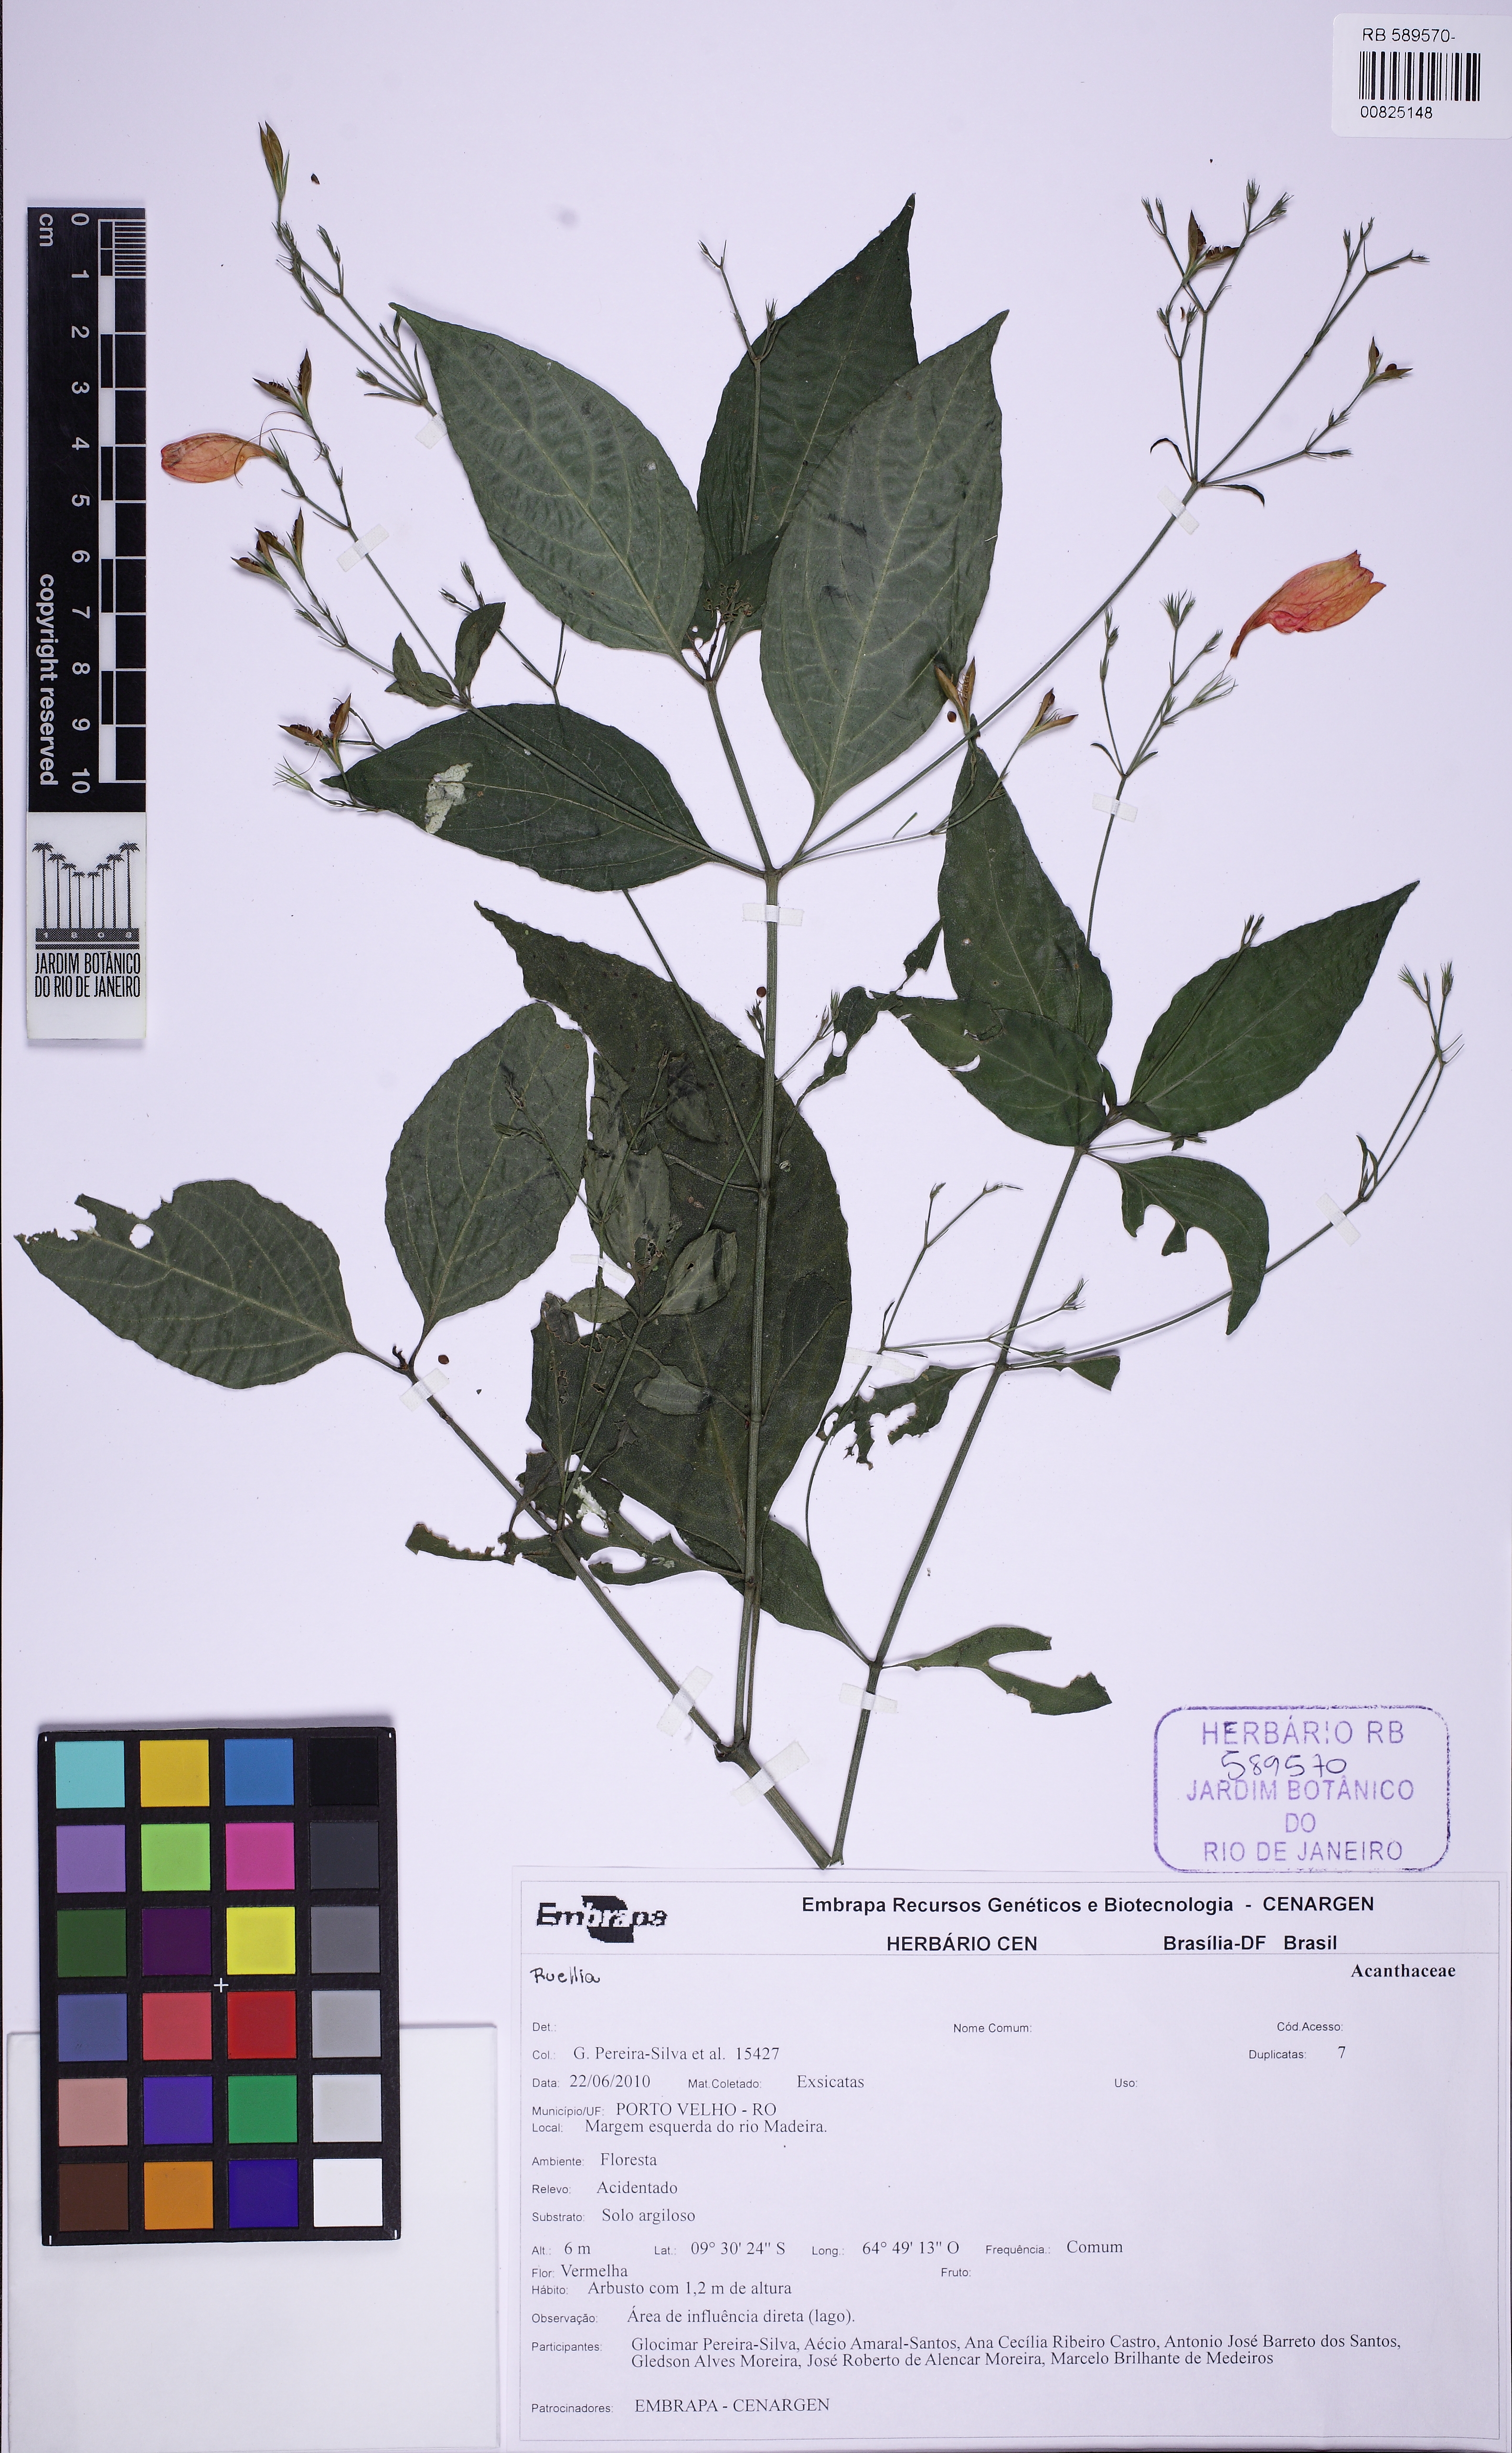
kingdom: Plantae
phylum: Tracheophyta
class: Magnoliopsida
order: Lamiales
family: Acanthaceae
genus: Ruellia
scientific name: Ruellia brevifolia
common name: Tropical wild petunia
